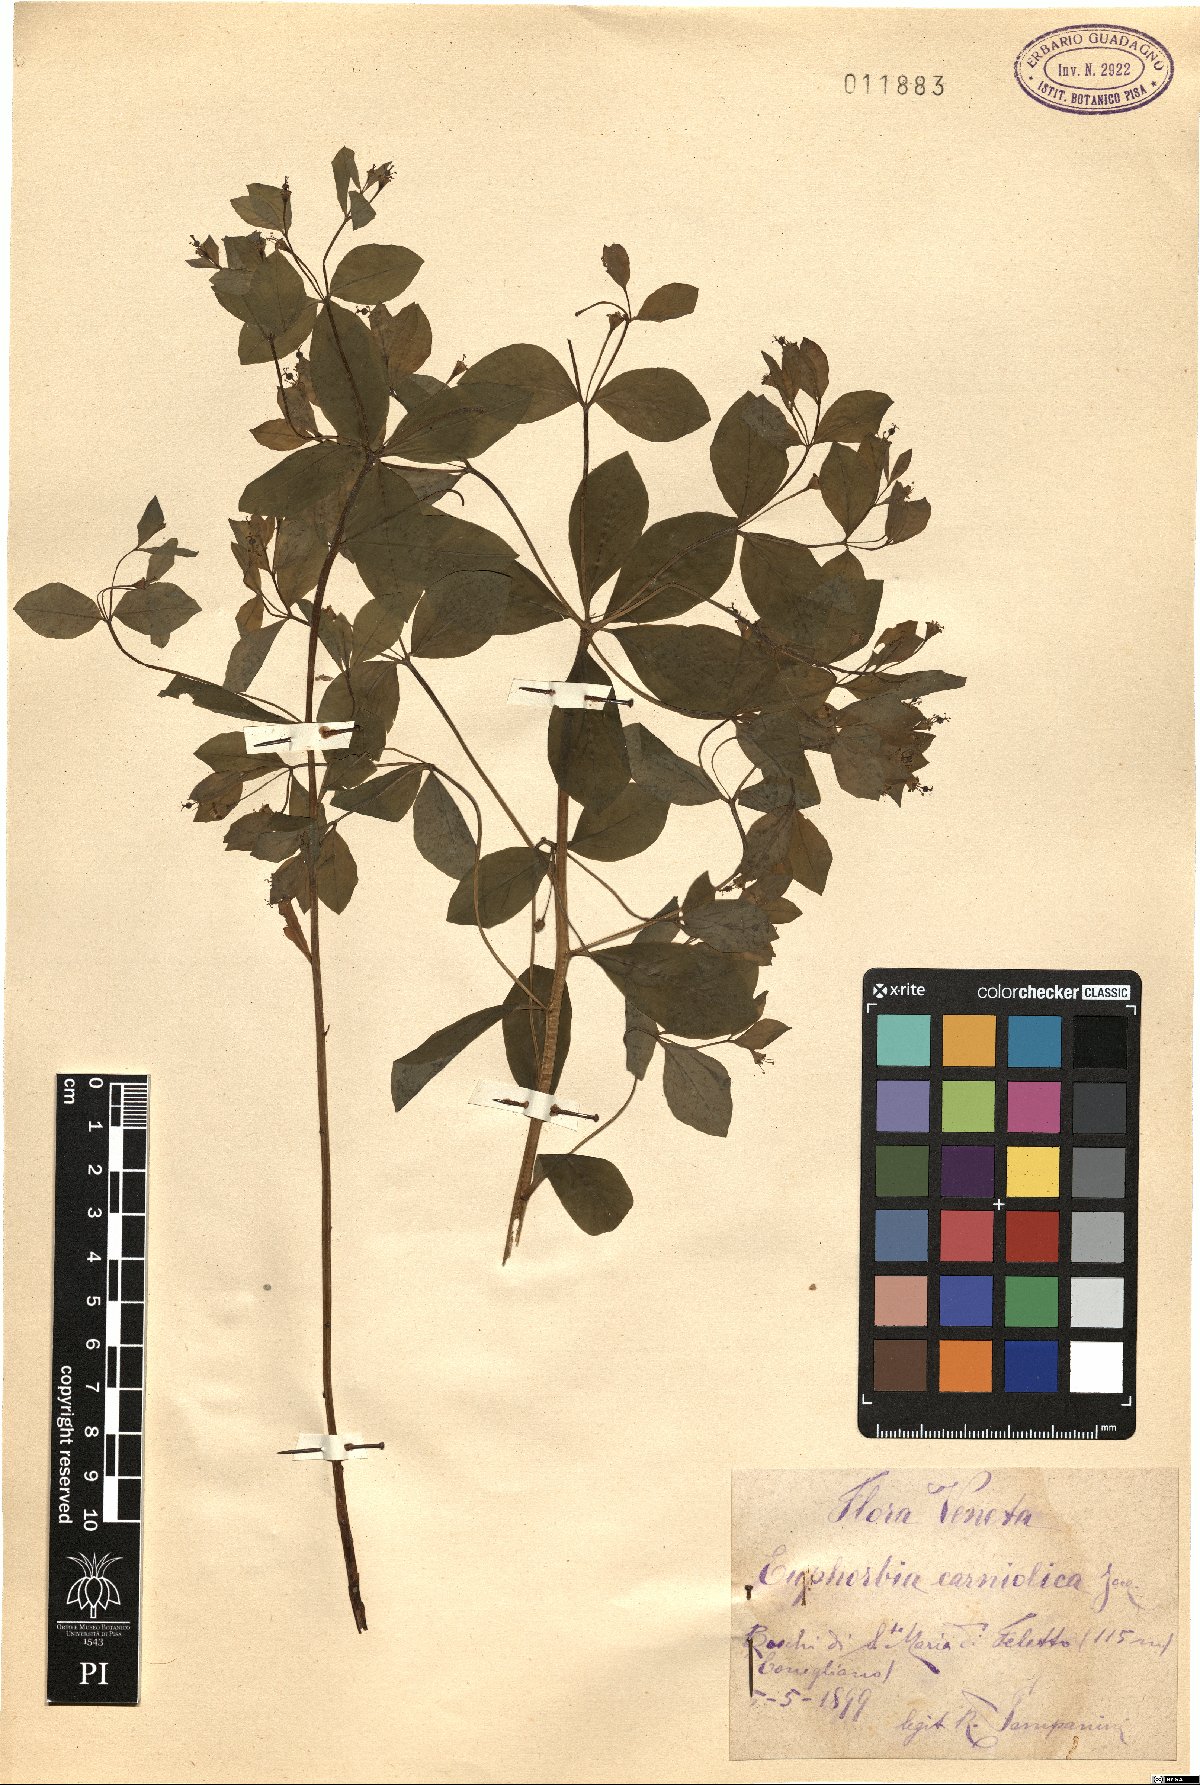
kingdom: Plantae
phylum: Tracheophyta
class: Magnoliopsida
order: Malpighiales
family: Euphorbiaceae
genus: Euphorbia
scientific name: Euphorbia carniolica
